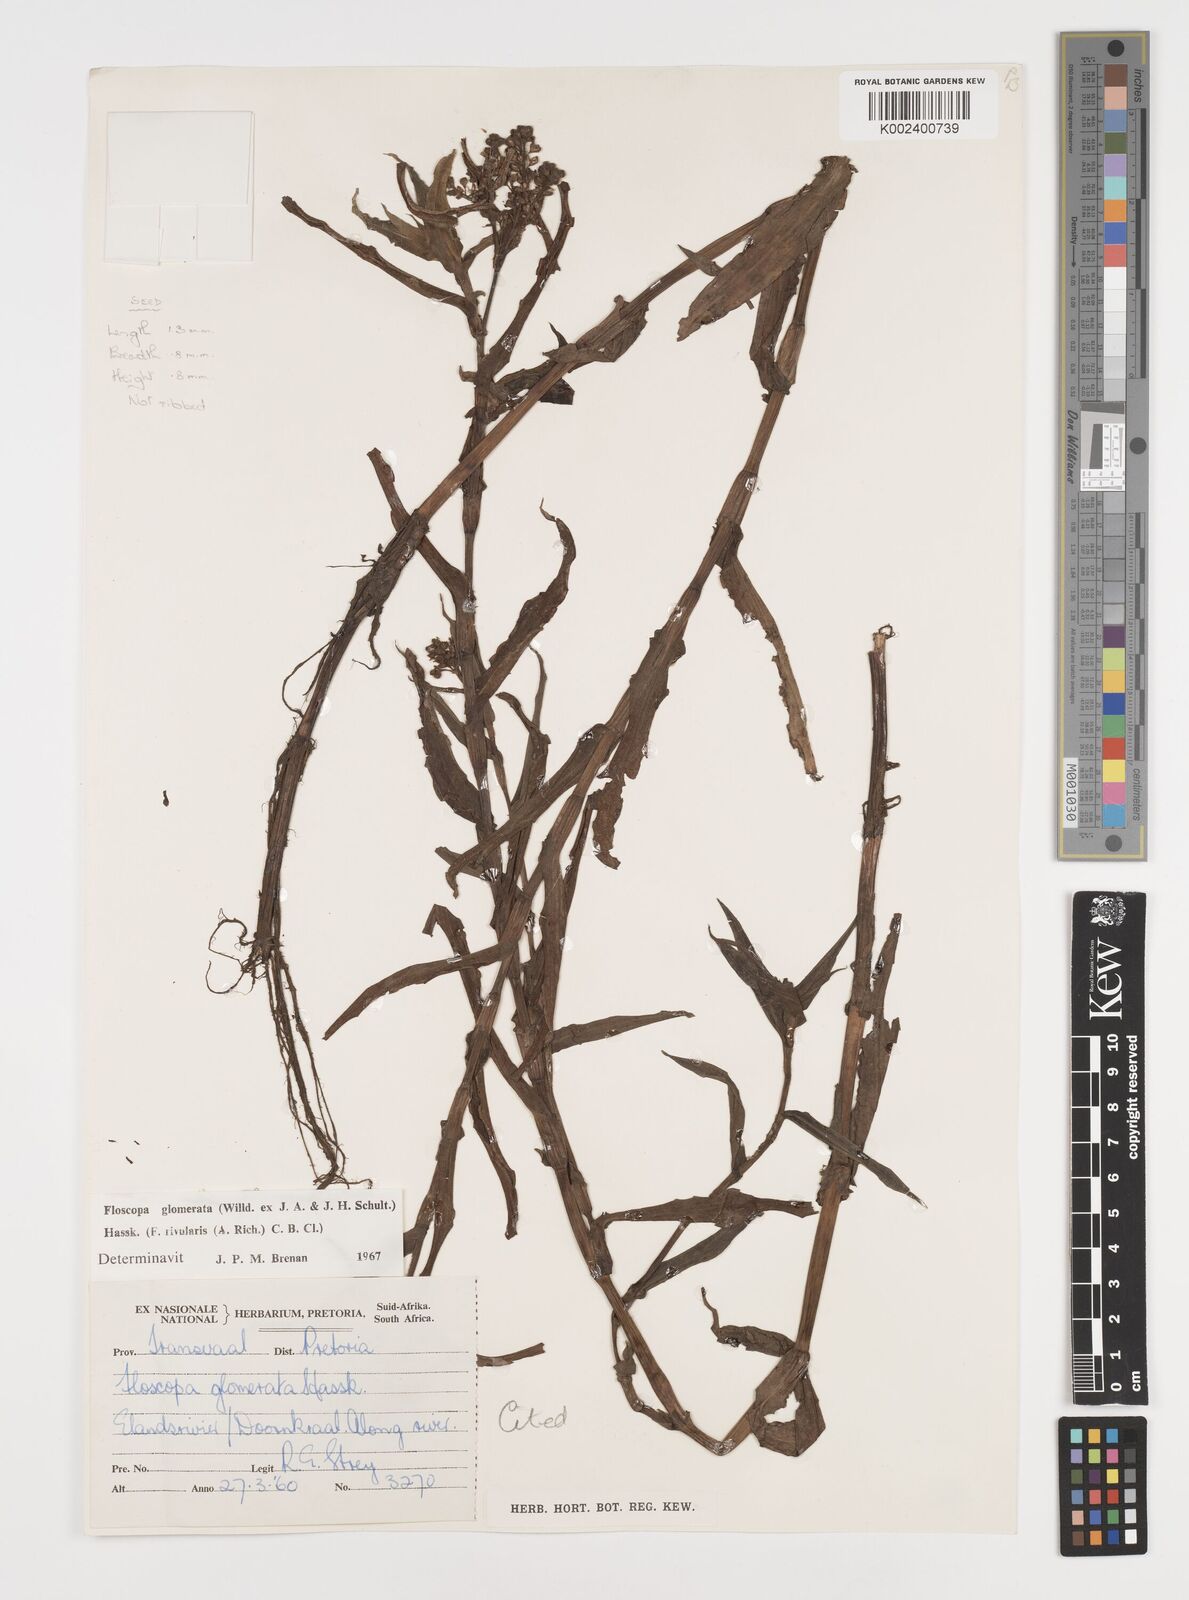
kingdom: Plantae
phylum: Tracheophyta
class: Liliopsida
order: Commelinales
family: Commelinaceae
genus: Floscopa
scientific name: Floscopa glomerata
